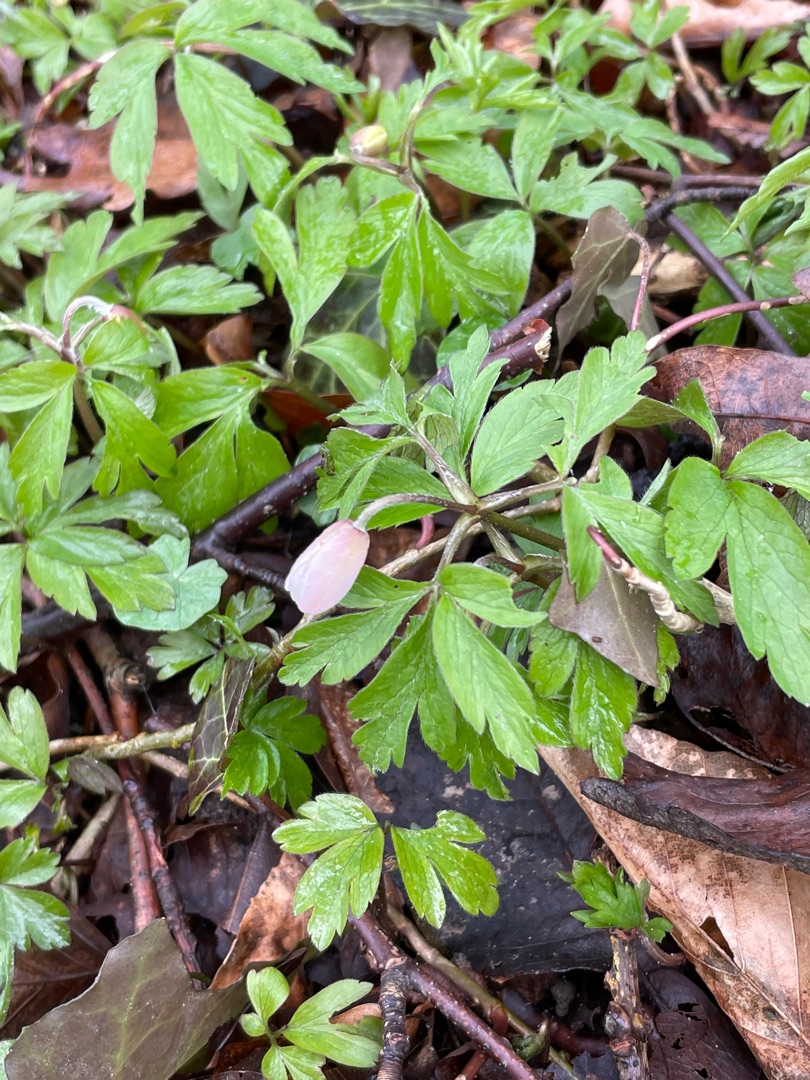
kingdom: Plantae
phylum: Tracheophyta
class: Magnoliopsida
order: Ranunculales
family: Ranunculaceae
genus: Anemone
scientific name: Anemone nemorosa
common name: Hvid anemone
